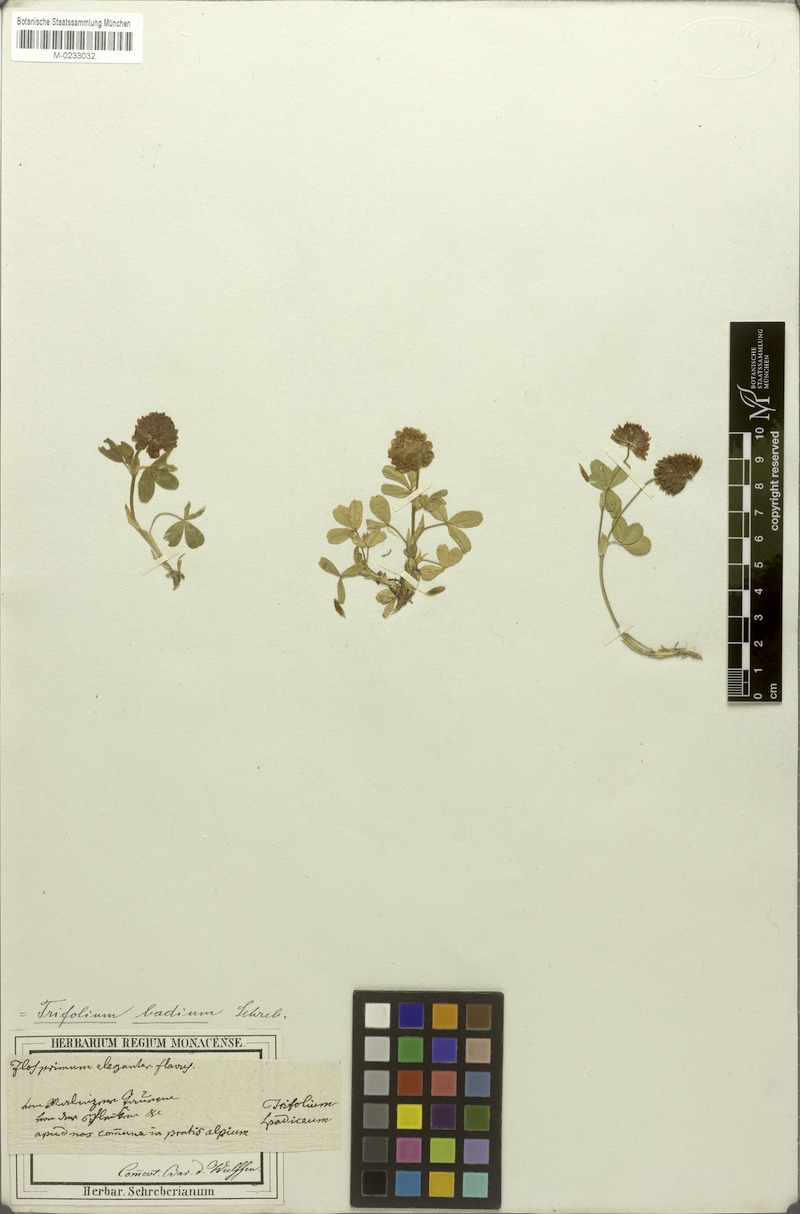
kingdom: Plantae
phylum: Tracheophyta
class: Magnoliopsida
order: Fabales
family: Fabaceae
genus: Trifolium
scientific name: Trifolium badium
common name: Brown clover
